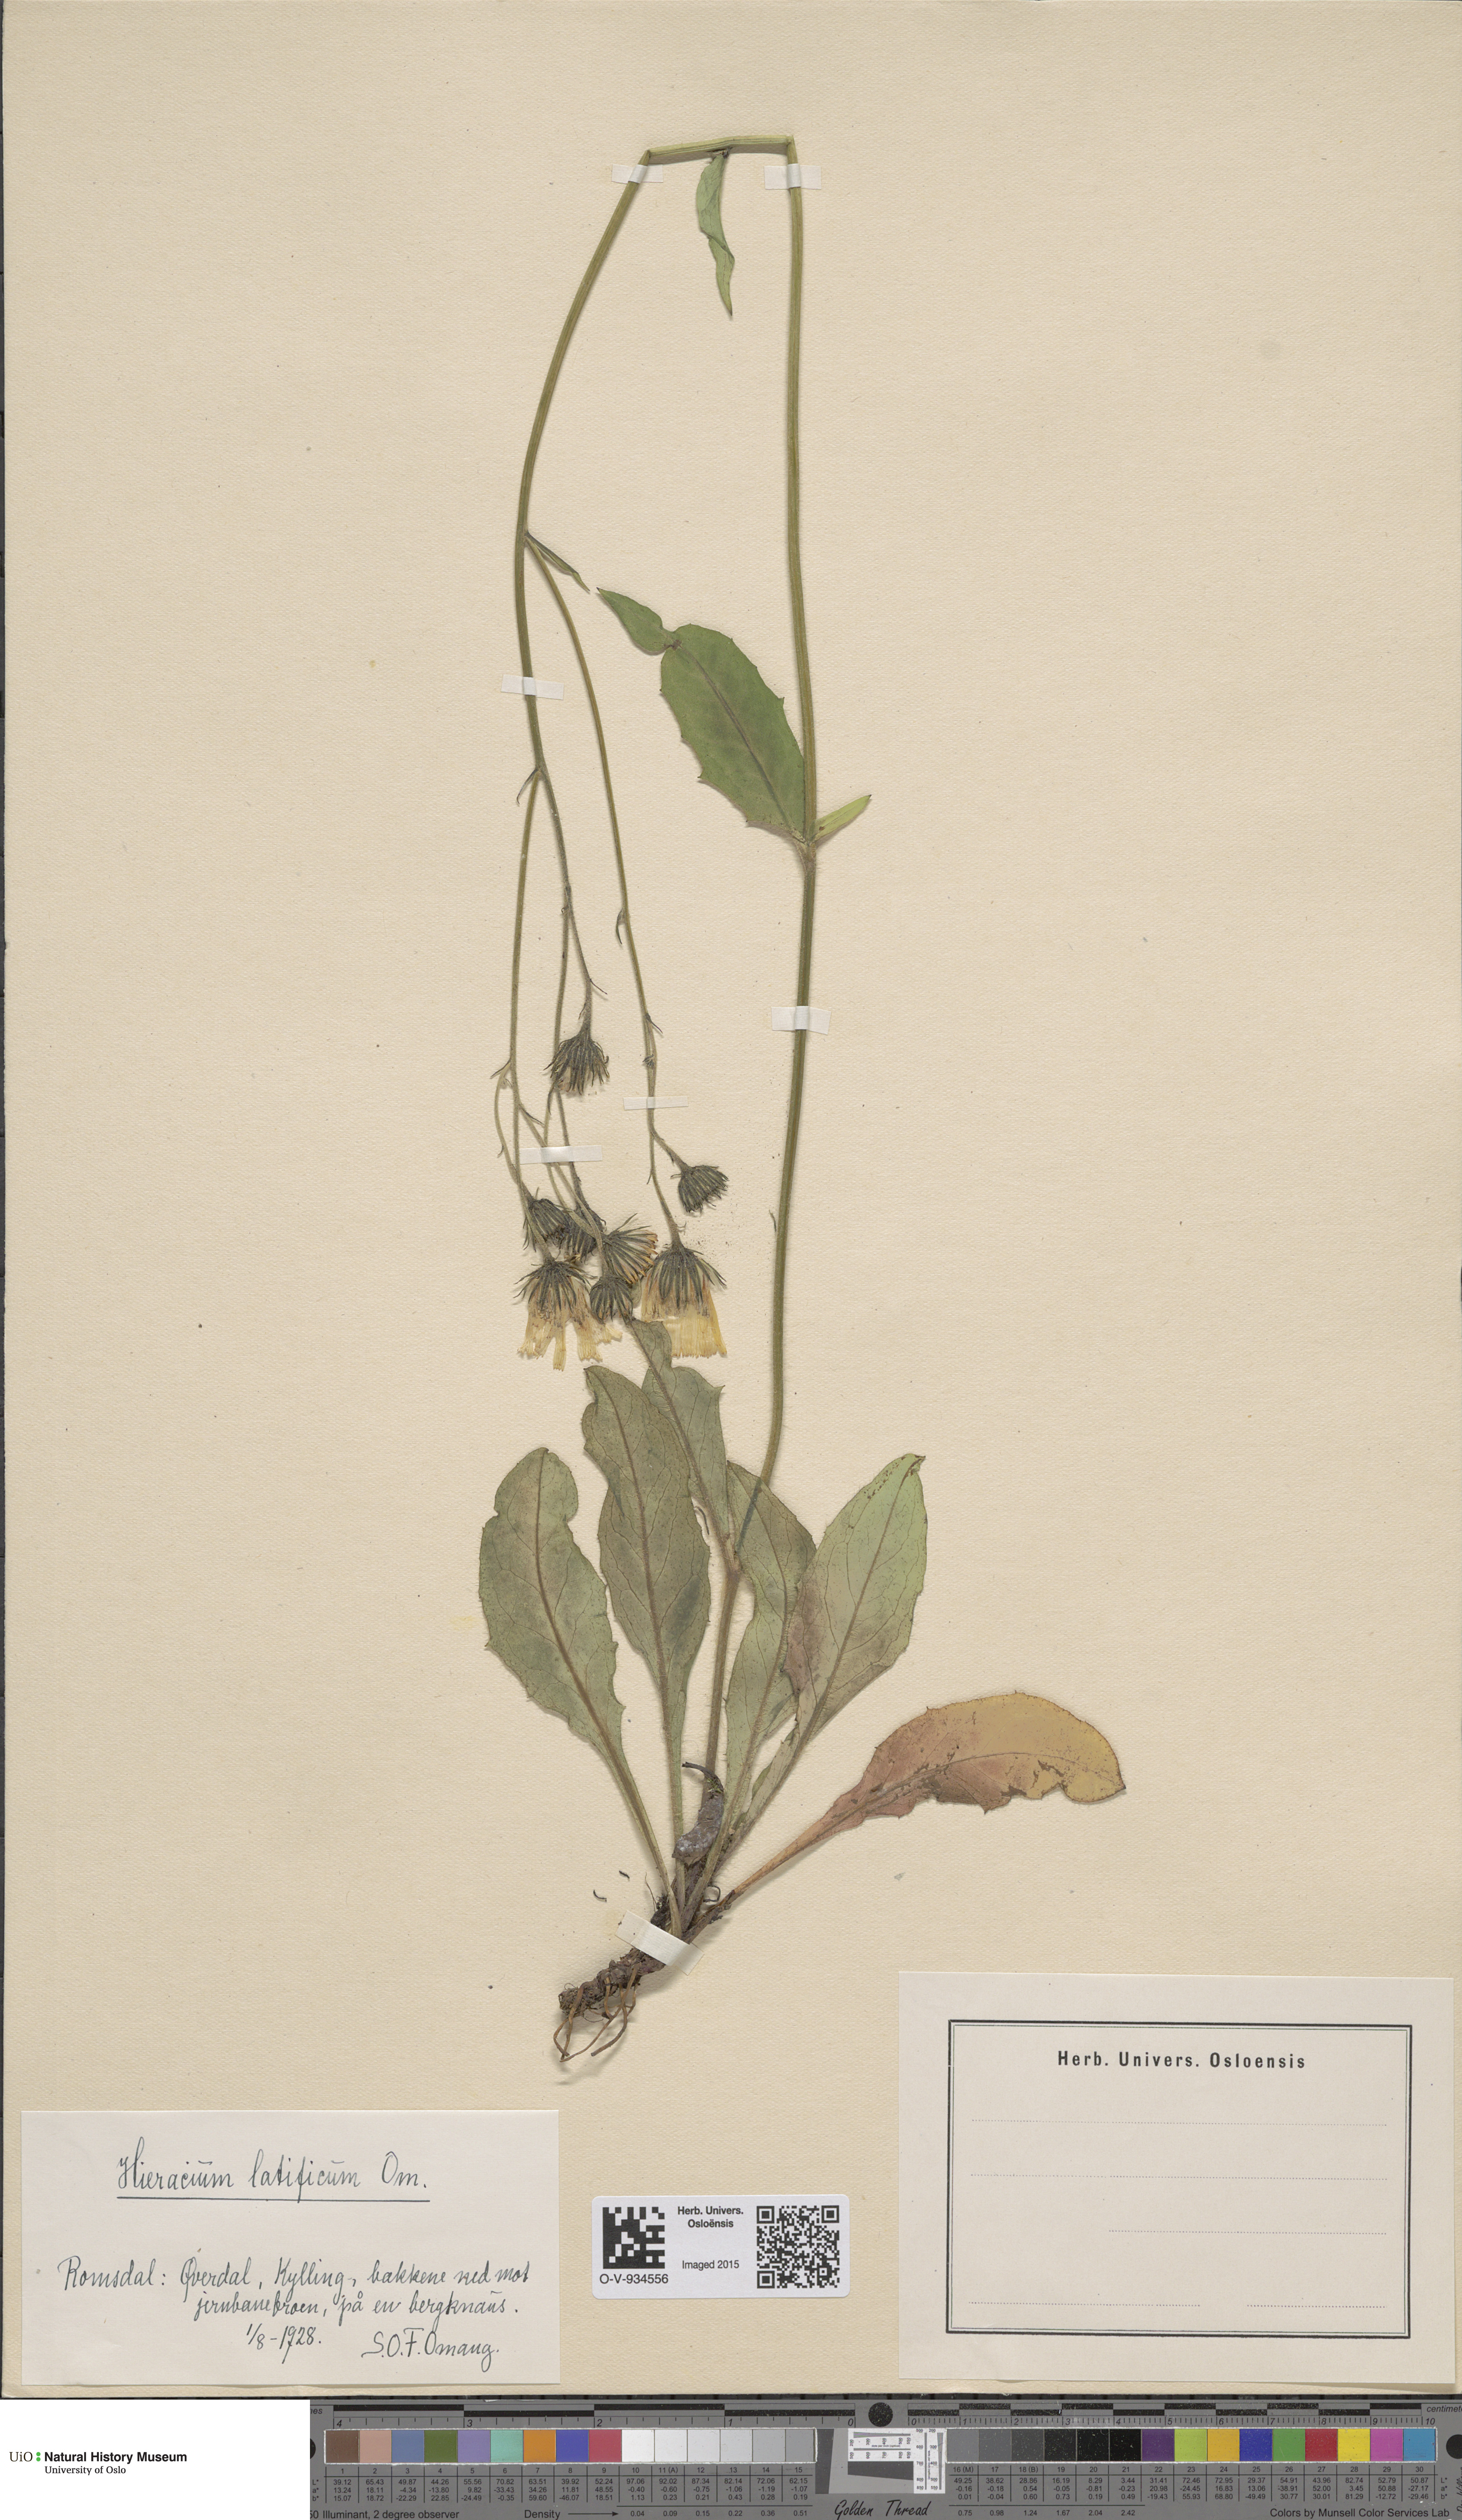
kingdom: Plantae
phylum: Tracheophyta
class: Magnoliopsida
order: Asterales
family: Asteraceae
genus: Hieracium
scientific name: Hieracium saxifragum
